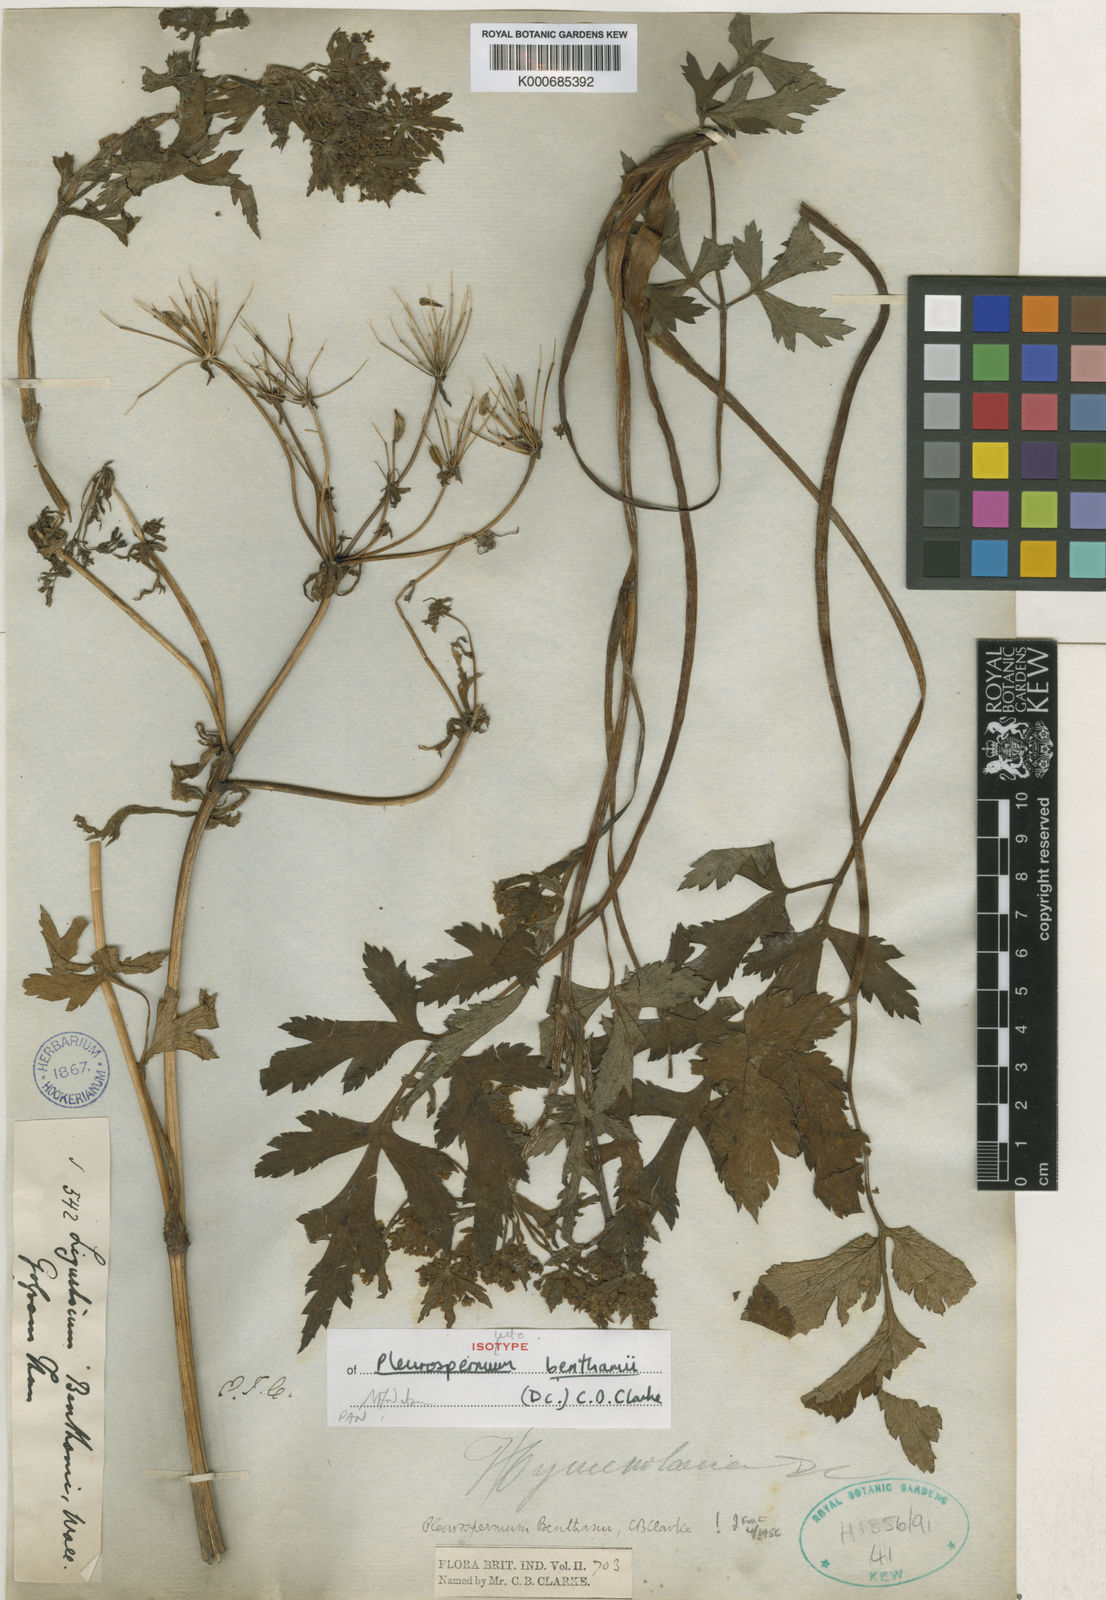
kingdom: Plantae
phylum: Tracheophyta
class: Magnoliopsida
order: Apiales
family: Apiaceae
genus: Hymenidium
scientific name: Hymenidium benthamii
